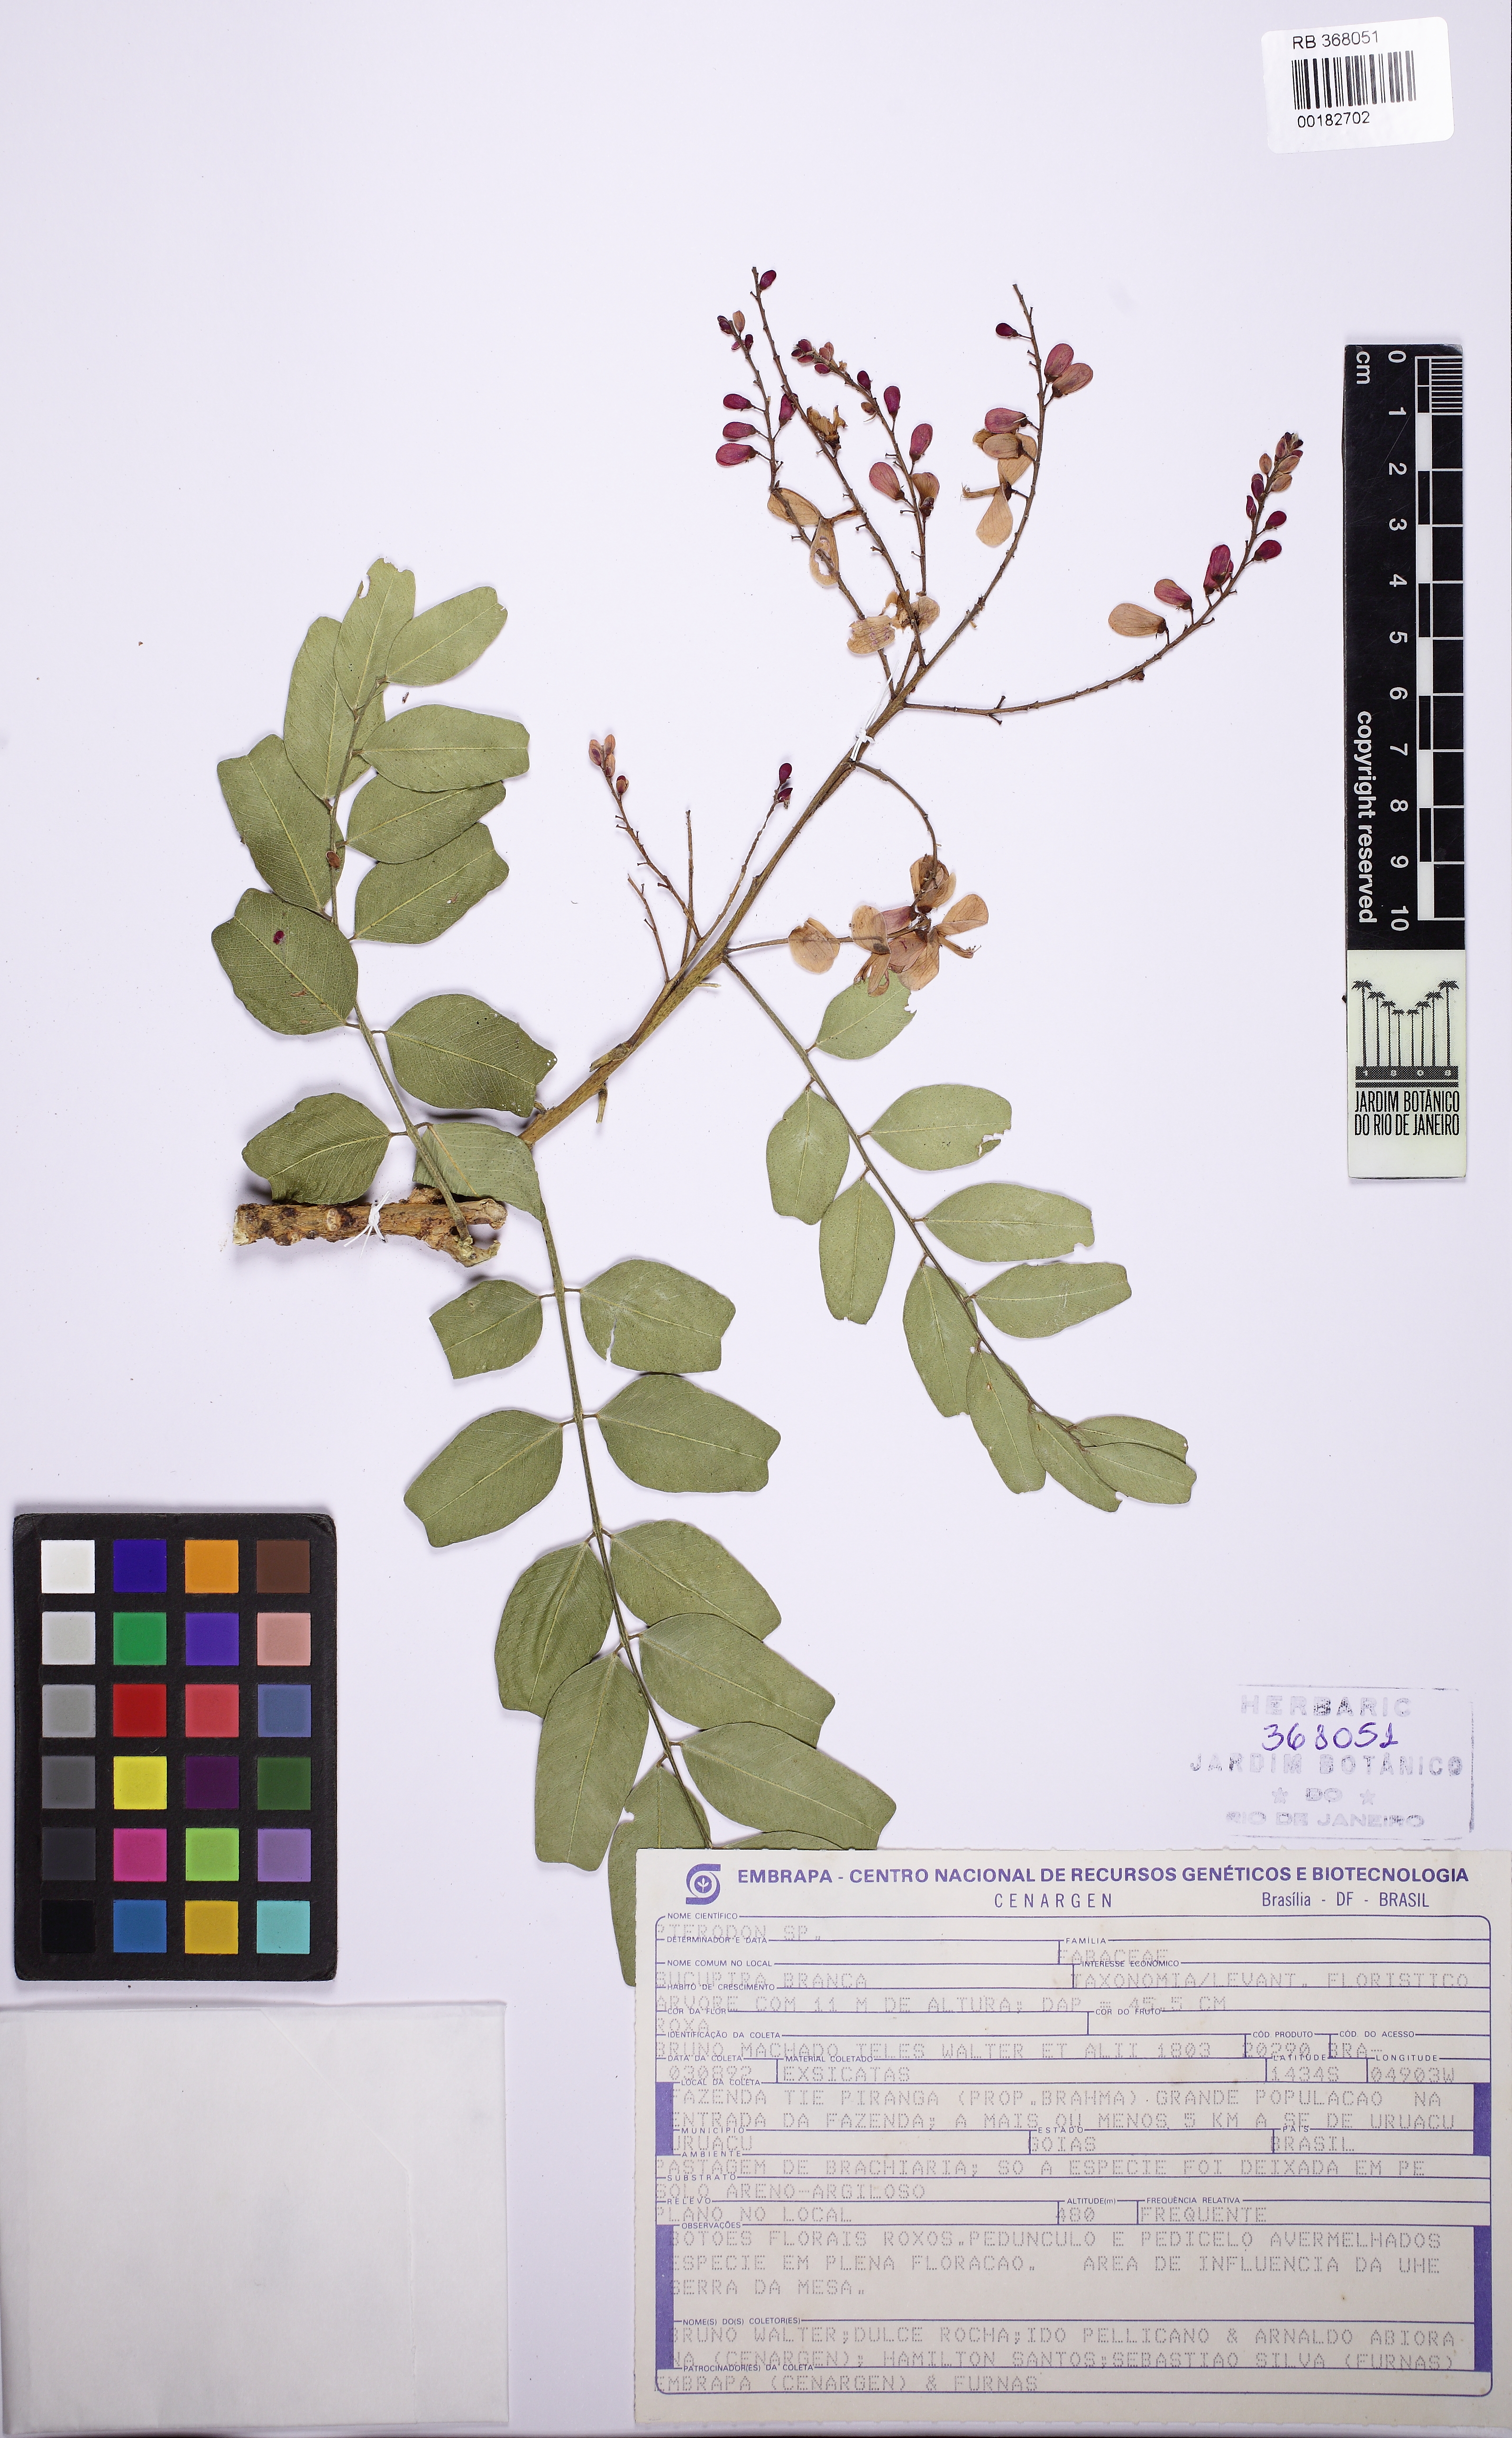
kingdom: Plantae
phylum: Tracheophyta
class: Magnoliopsida
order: Fabales
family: Fabaceae
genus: Pterodon
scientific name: Pterodon
